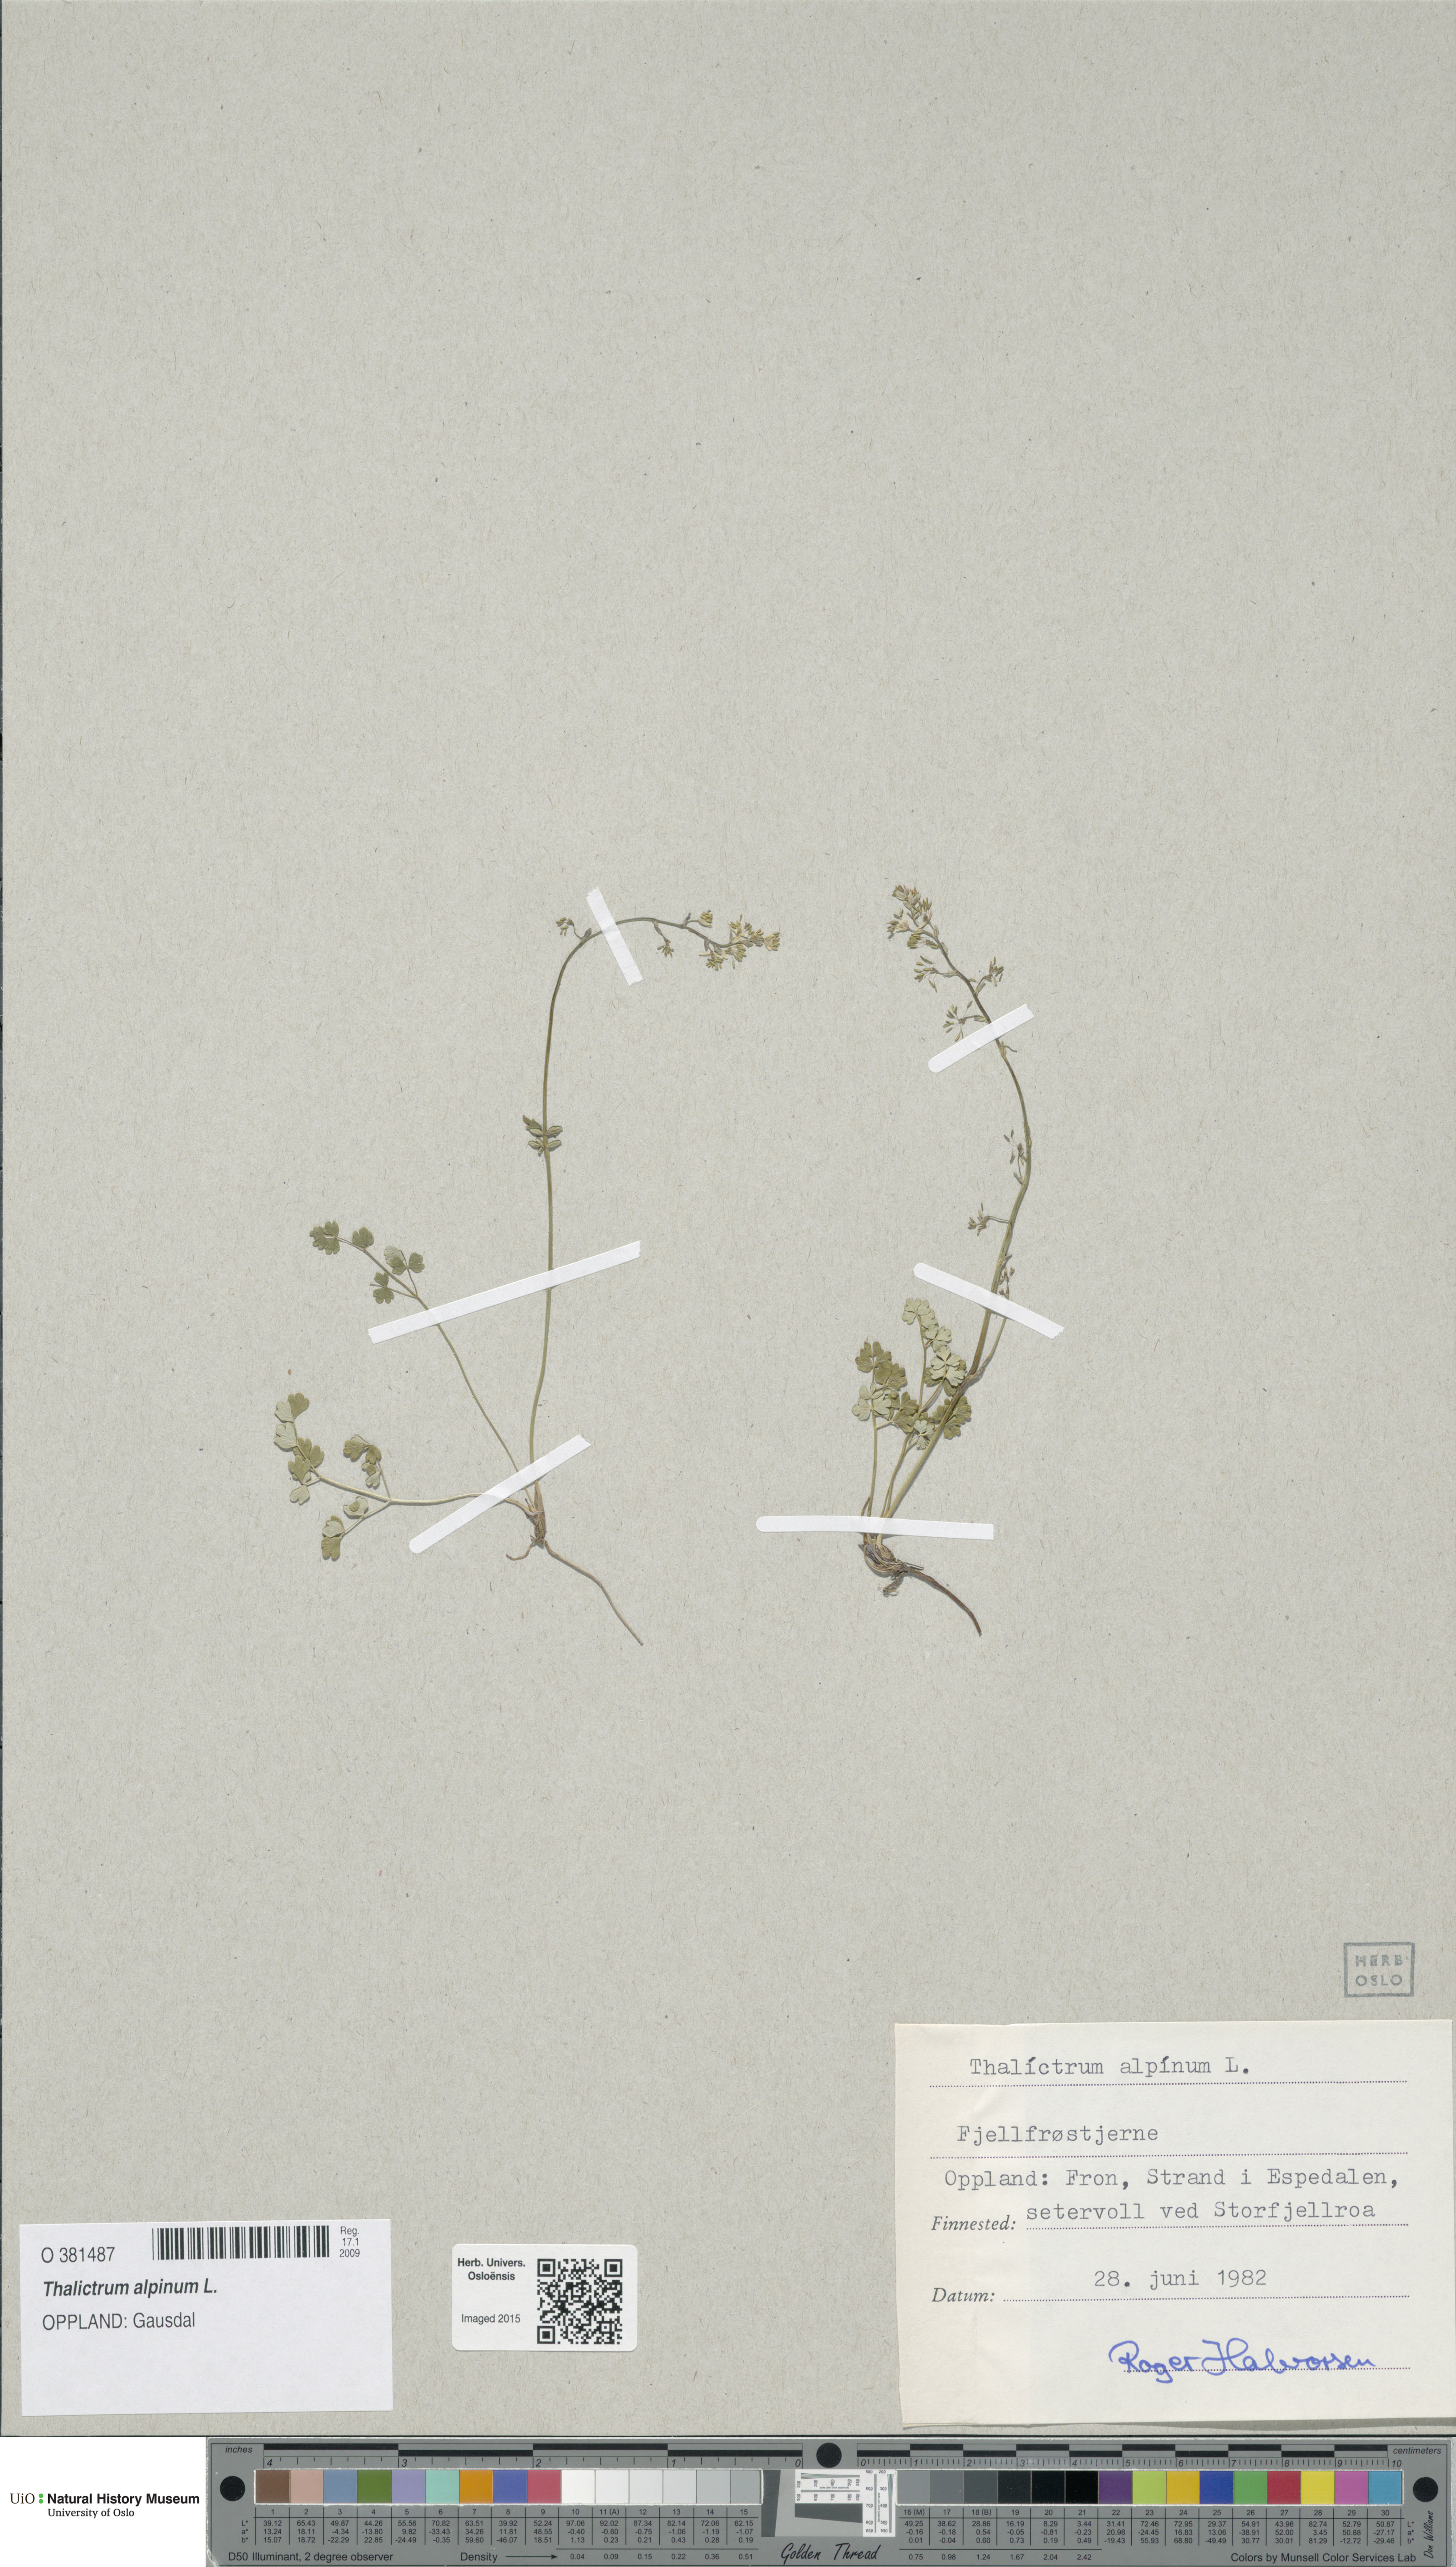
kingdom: Plantae
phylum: Tracheophyta
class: Magnoliopsida
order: Ranunculales
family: Ranunculaceae
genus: Thalictrum
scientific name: Thalictrum alpinum
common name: Alpine meadow-rue
